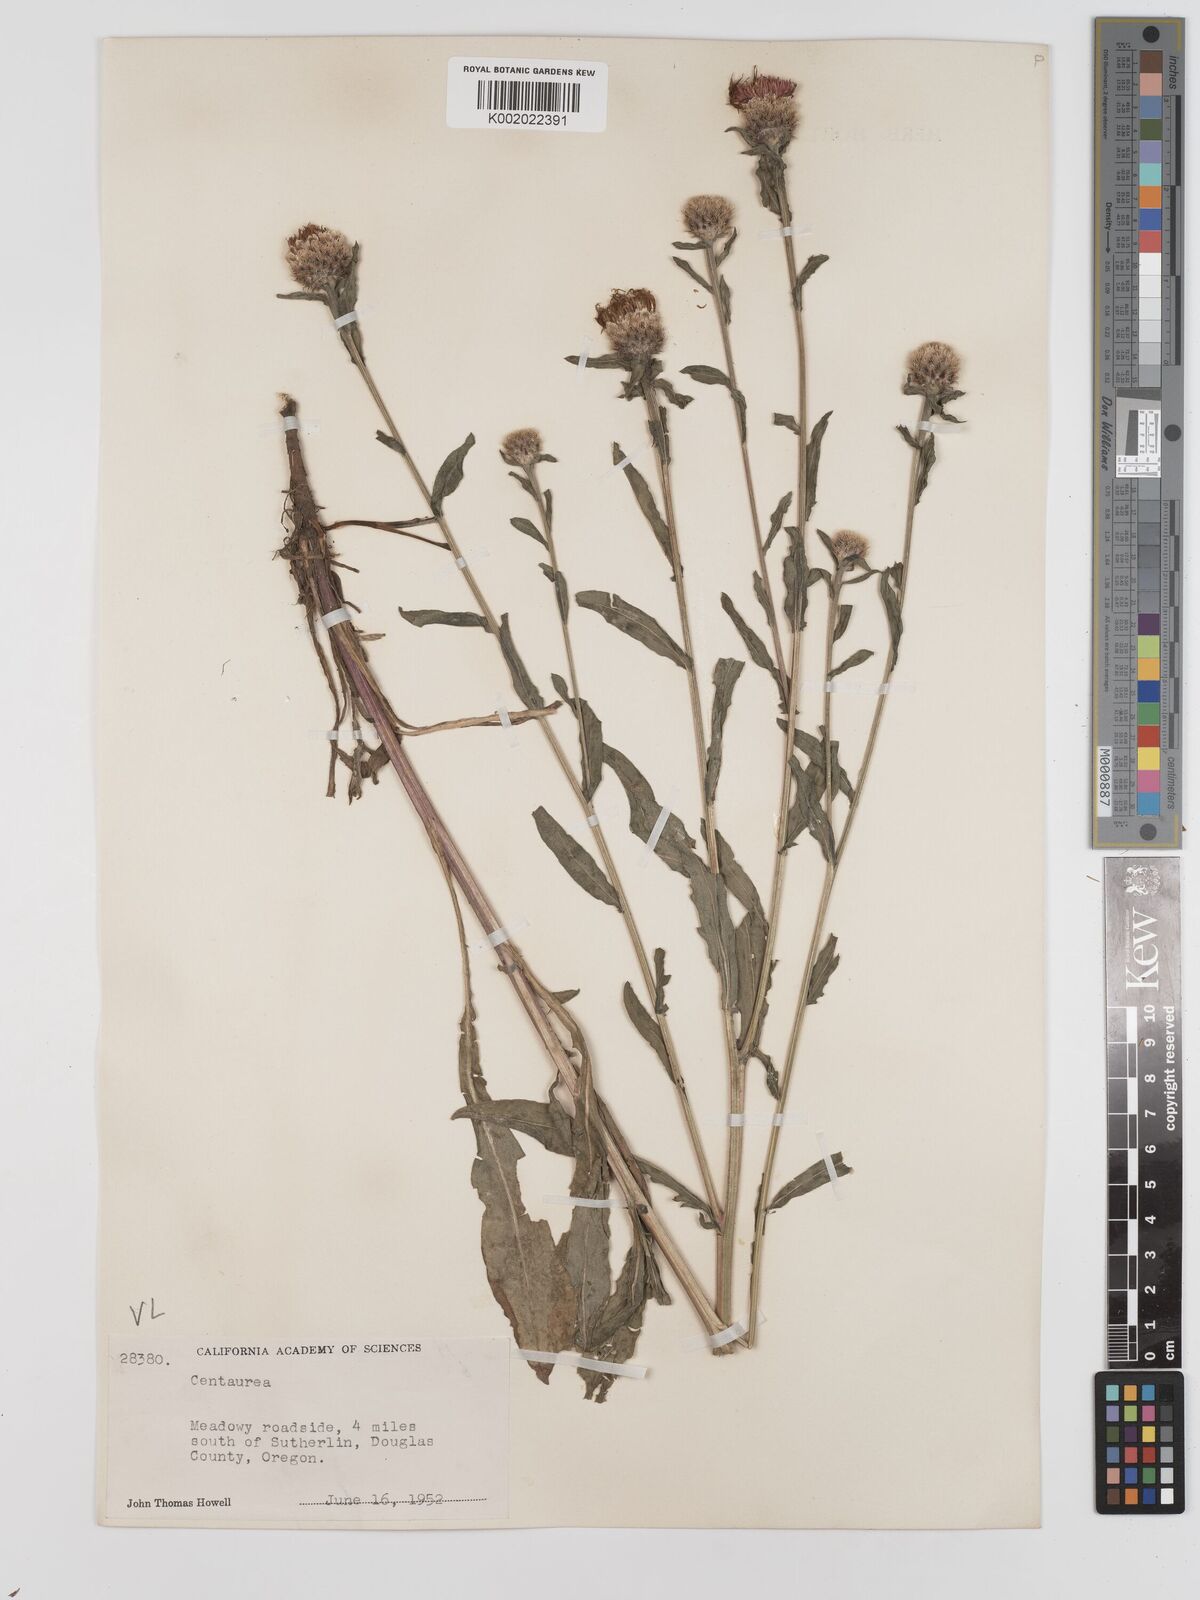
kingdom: Plantae
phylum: Tracheophyta
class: Magnoliopsida
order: Asterales
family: Asteraceae
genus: Centaurea
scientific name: Centaurea jacea
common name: Brown knapweed
